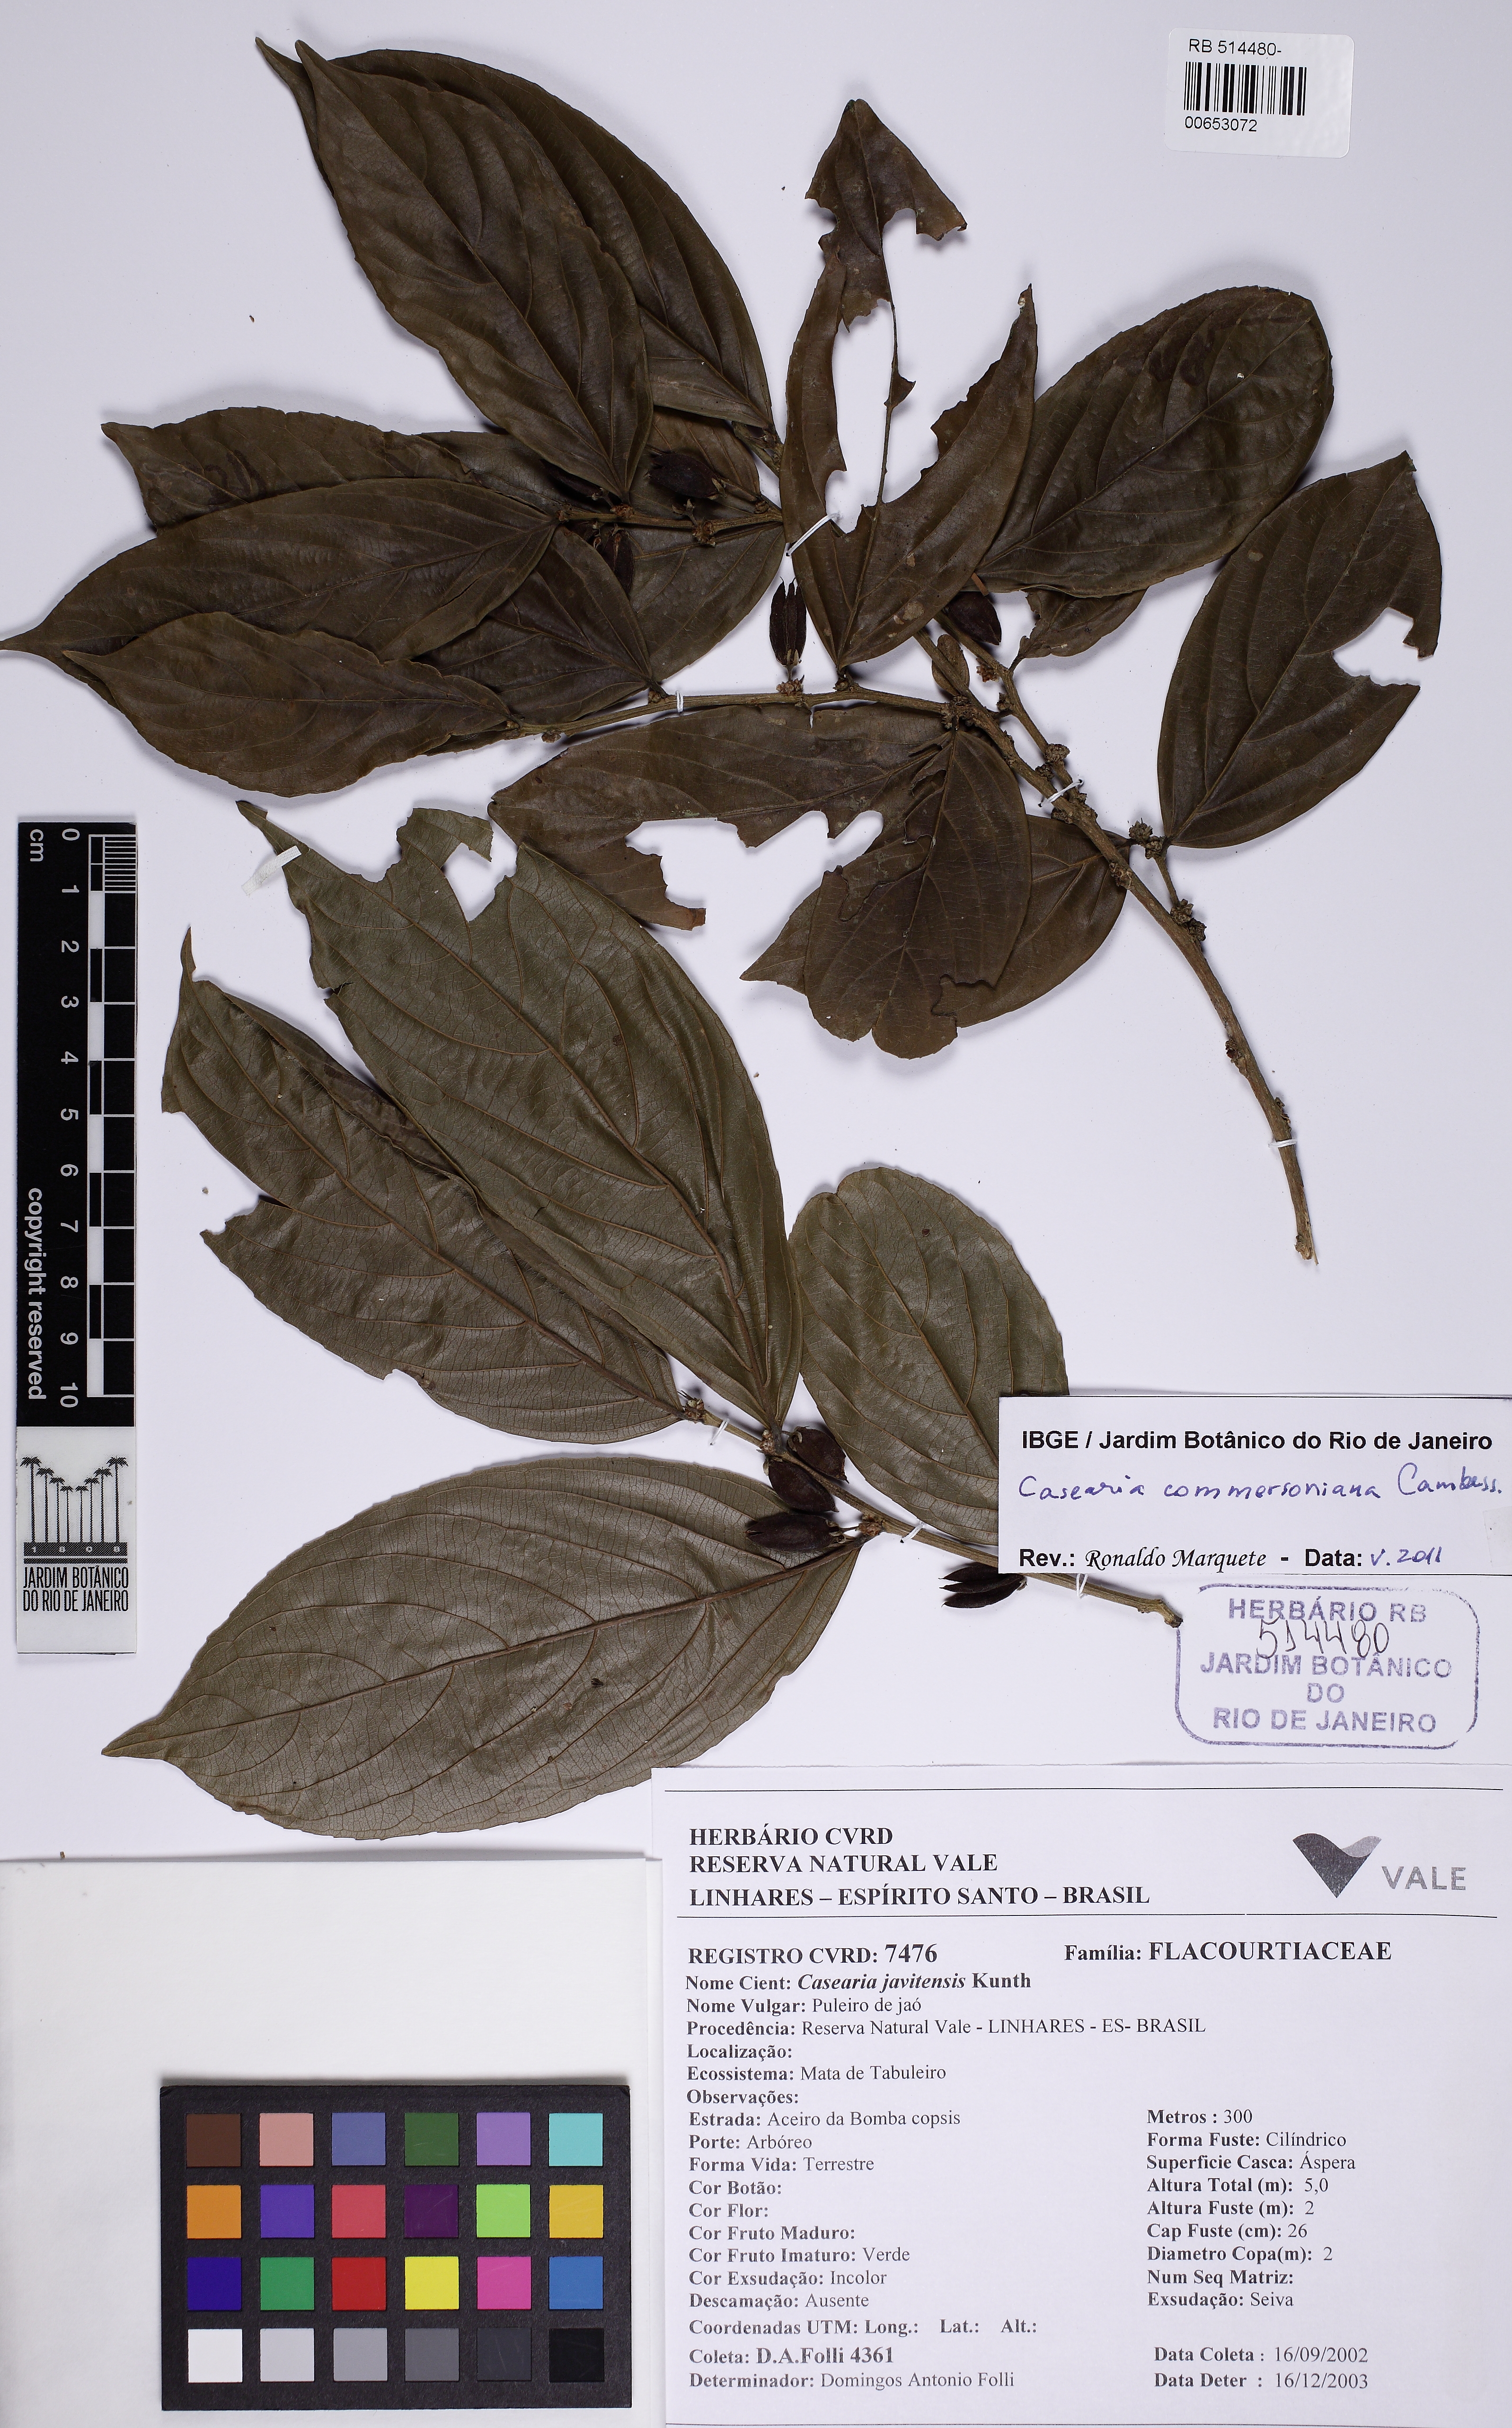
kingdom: Plantae
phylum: Tracheophyta
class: Magnoliopsida
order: Malpighiales
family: Salicaceae
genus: Piparea
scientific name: Piparea dentata
